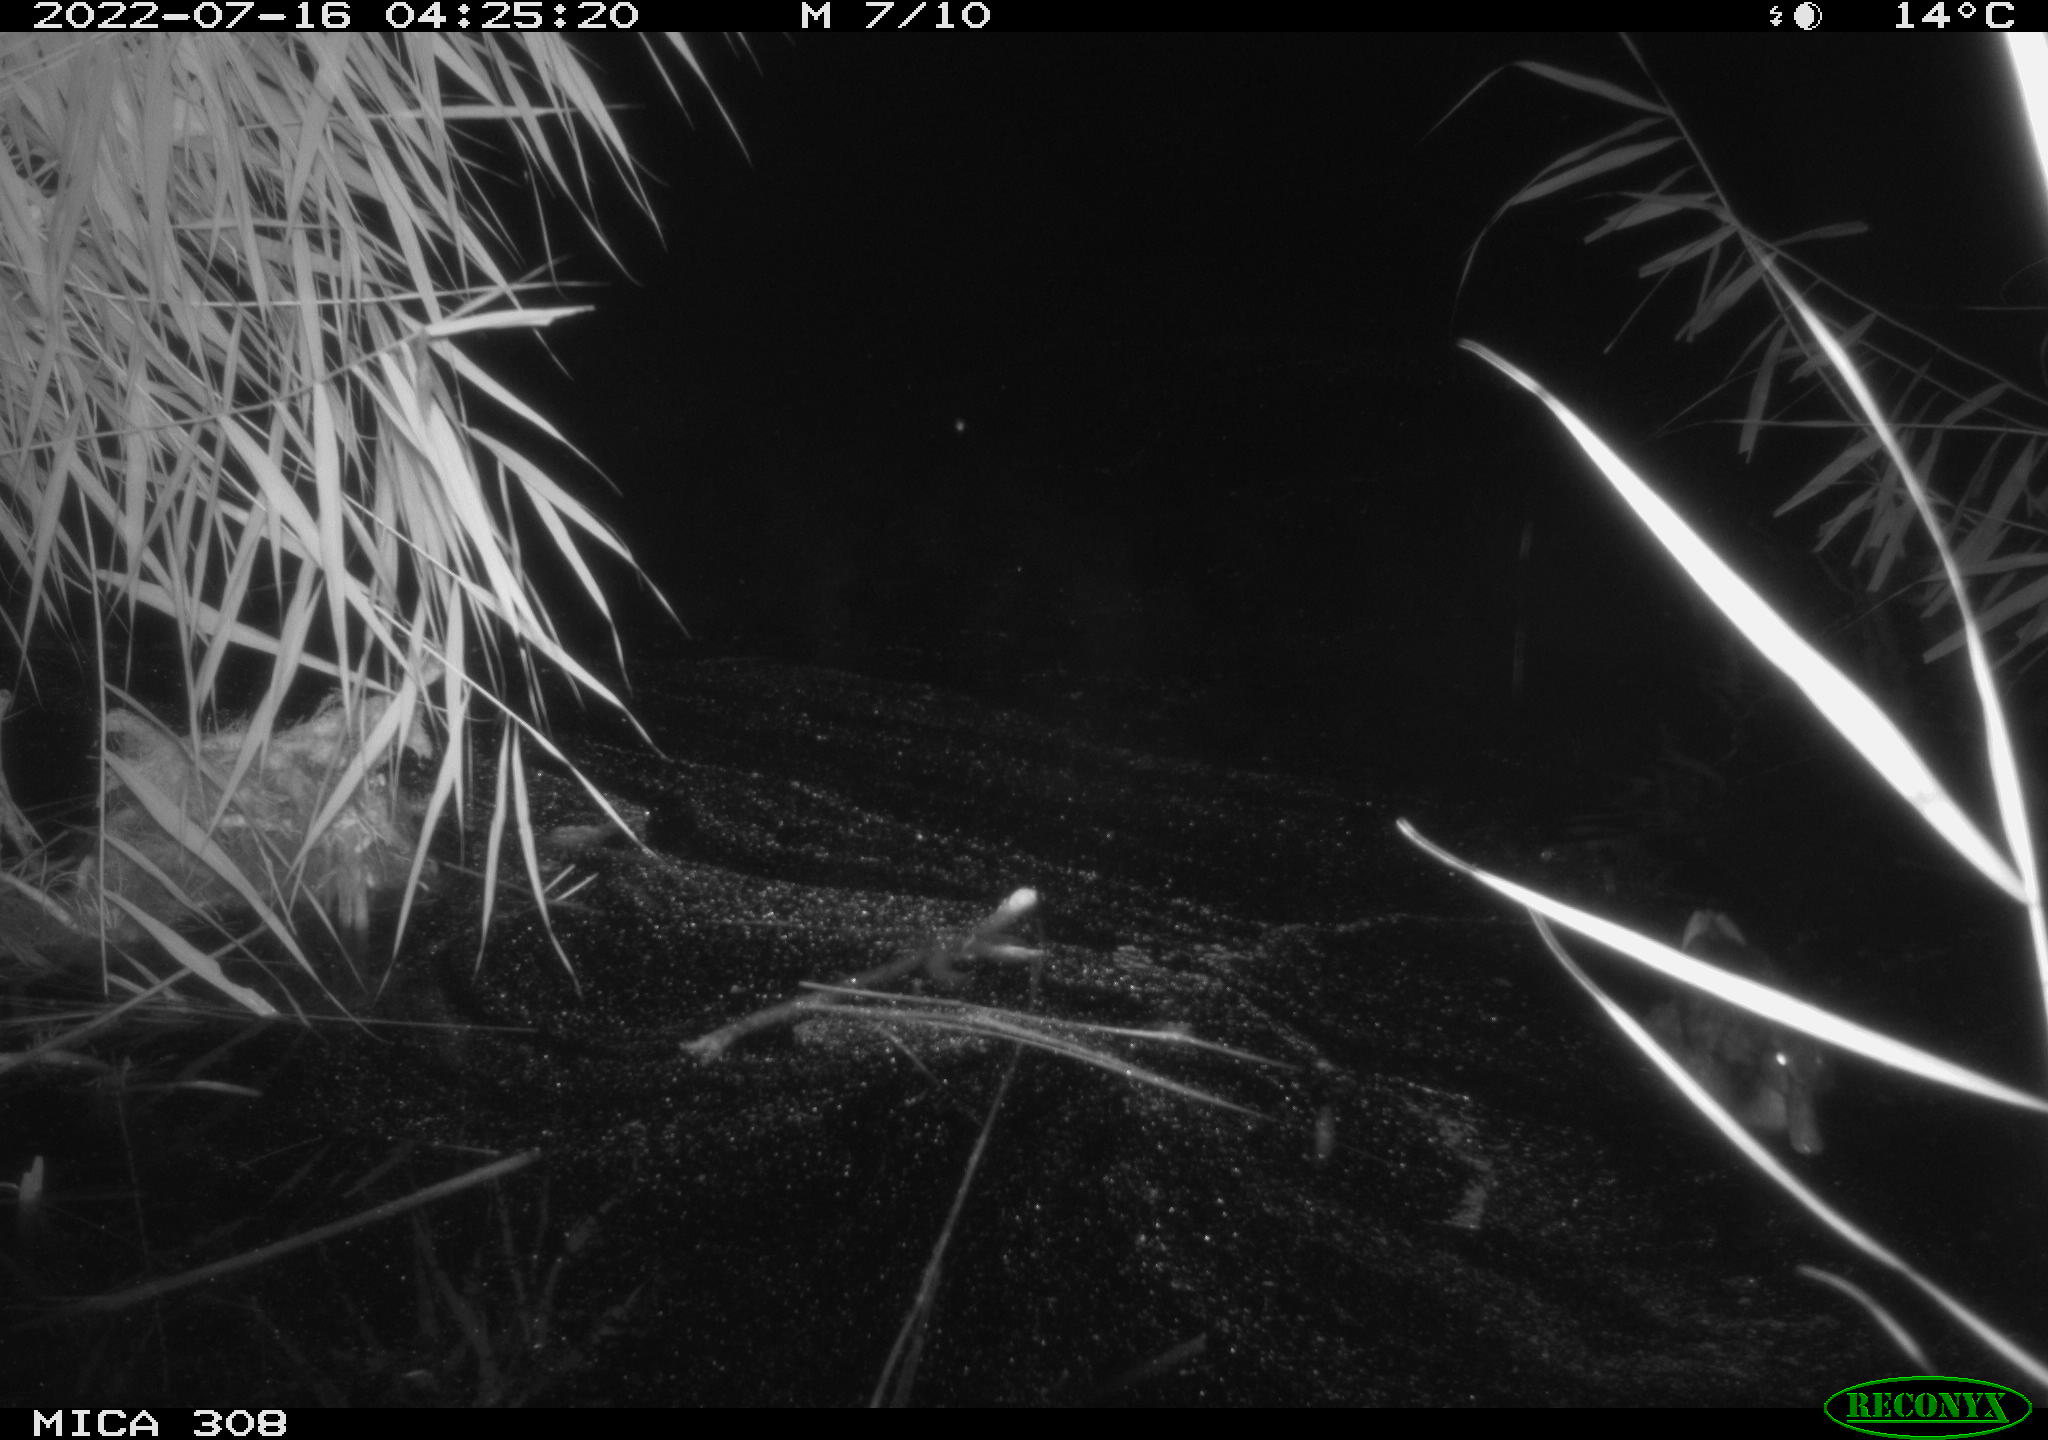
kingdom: Animalia
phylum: Chordata
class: Aves
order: Gruiformes
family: Rallidae
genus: Gallinula
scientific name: Gallinula chloropus
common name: Common moorhen
